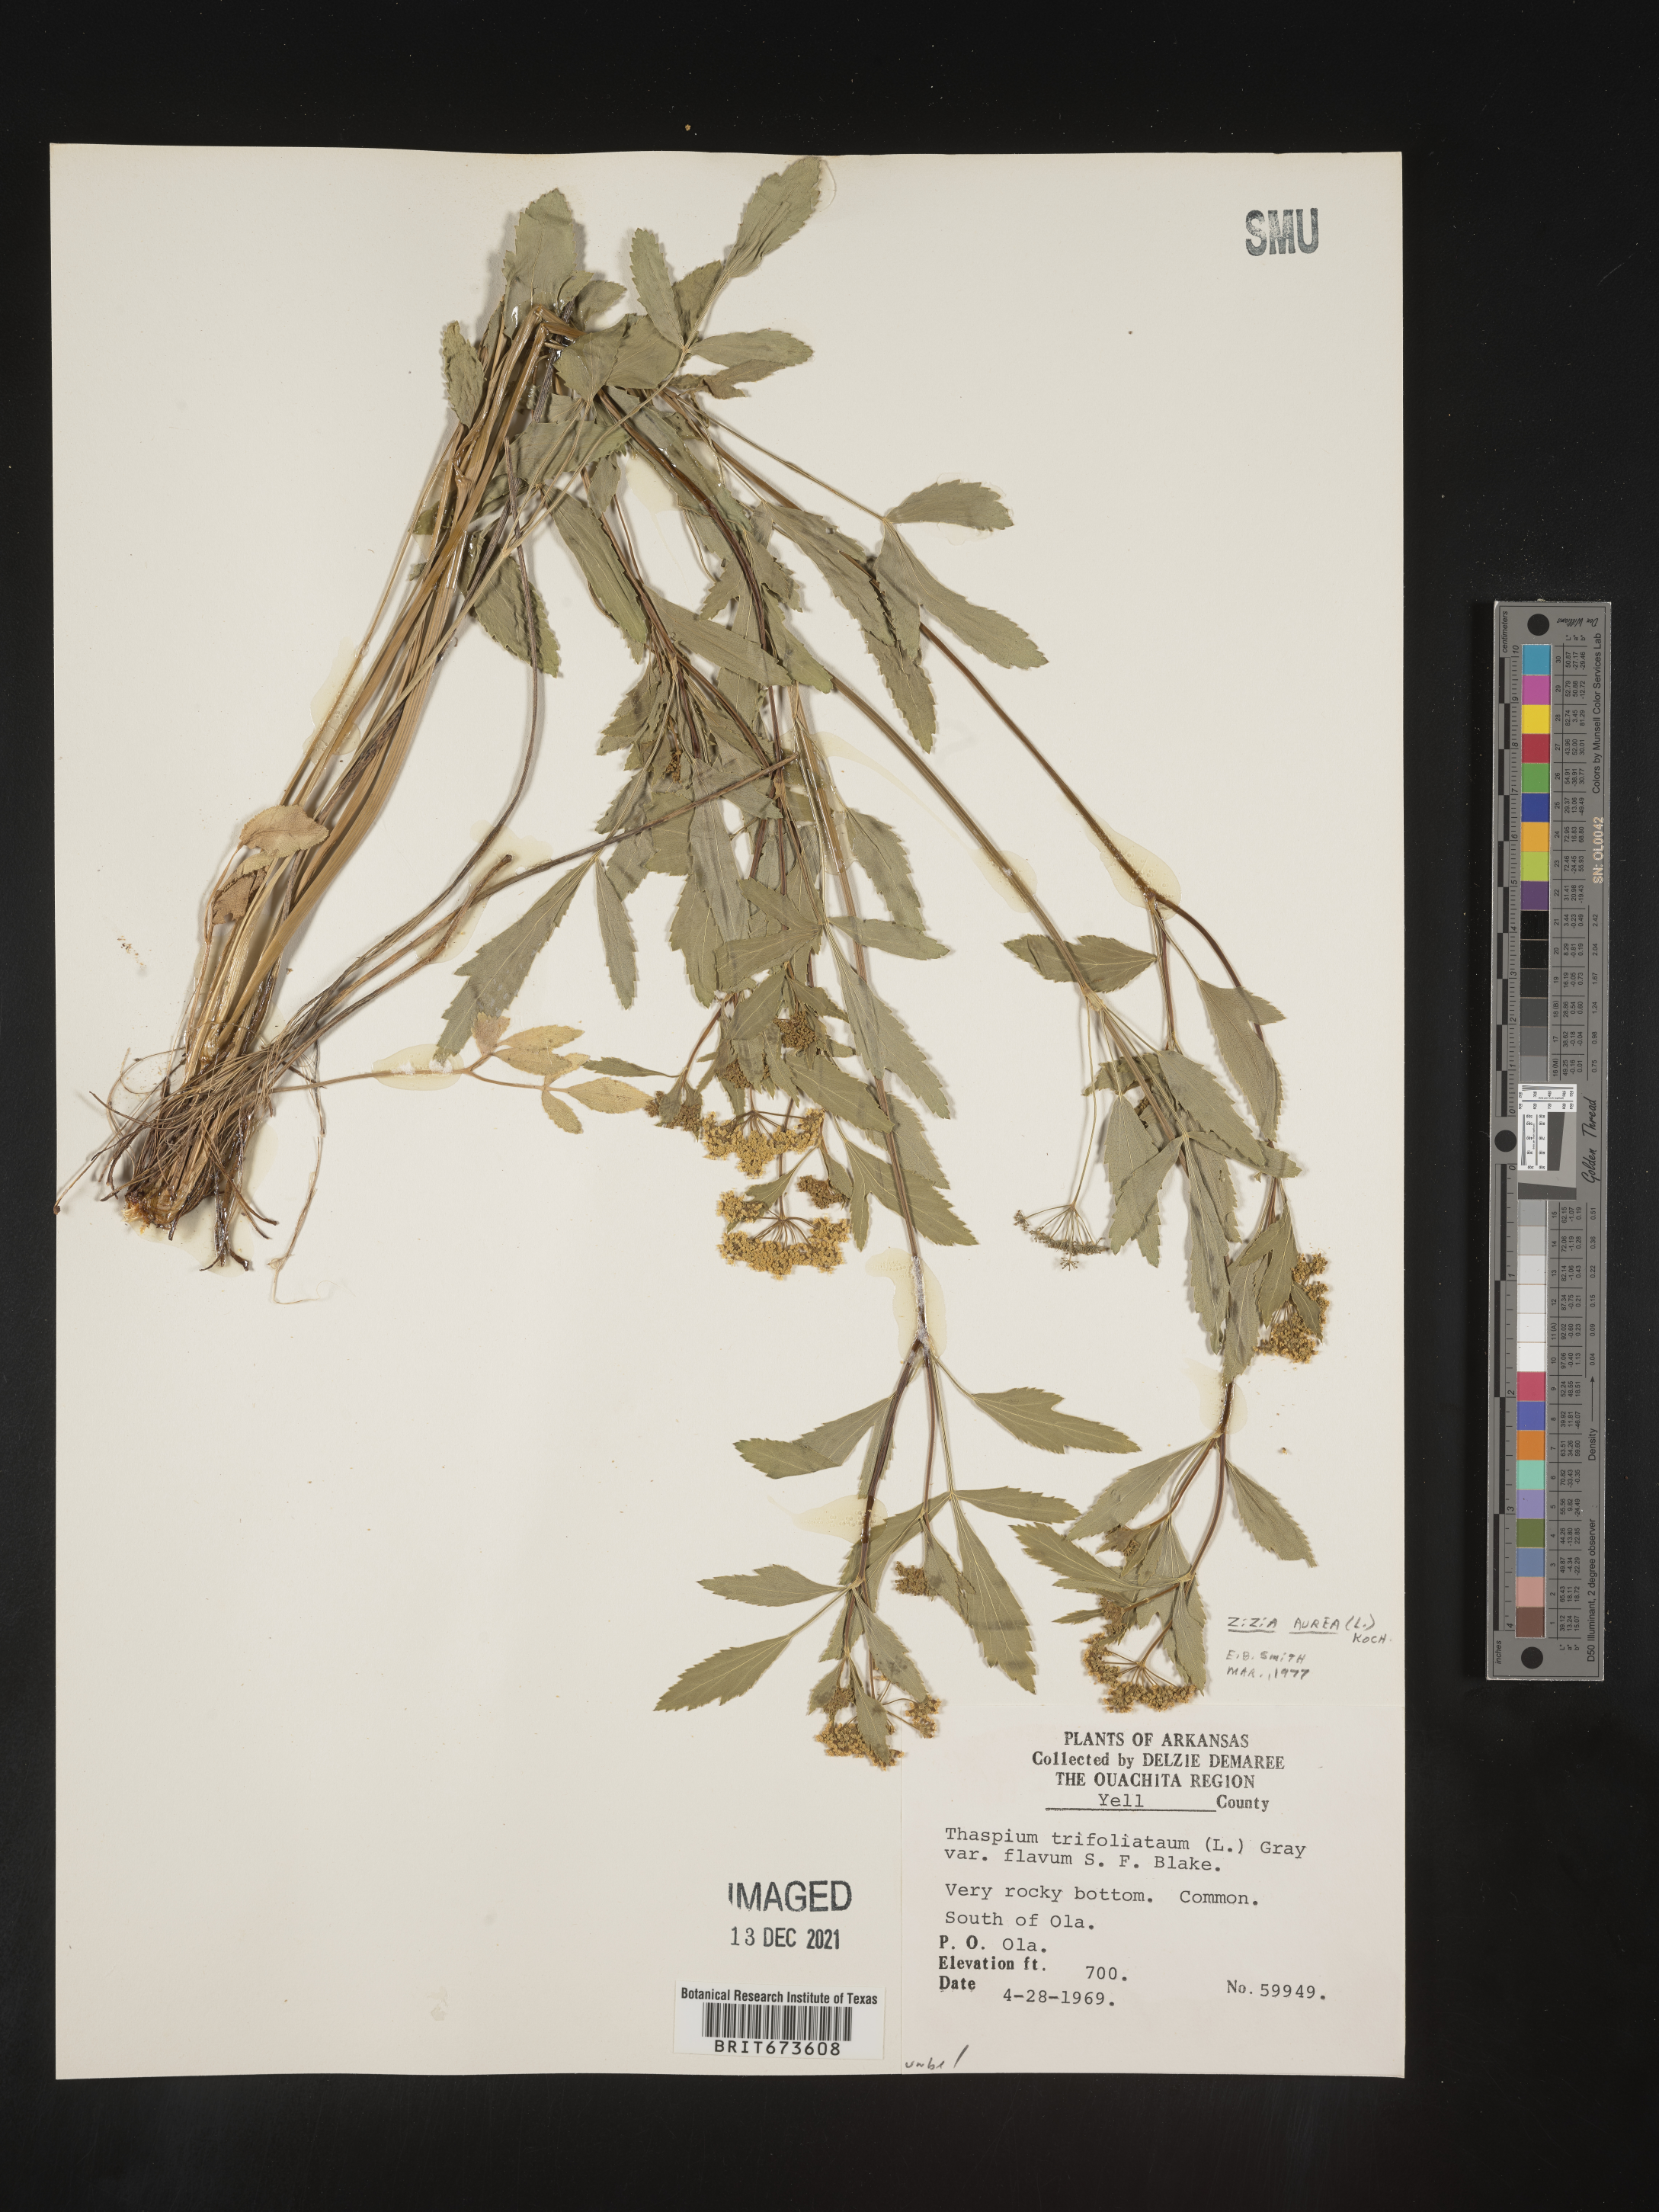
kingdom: Plantae
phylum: Tracheophyta
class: Magnoliopsida
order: Apiales
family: Apiaceae
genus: Zizia
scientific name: Zizia aurea
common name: Golden alexanders
